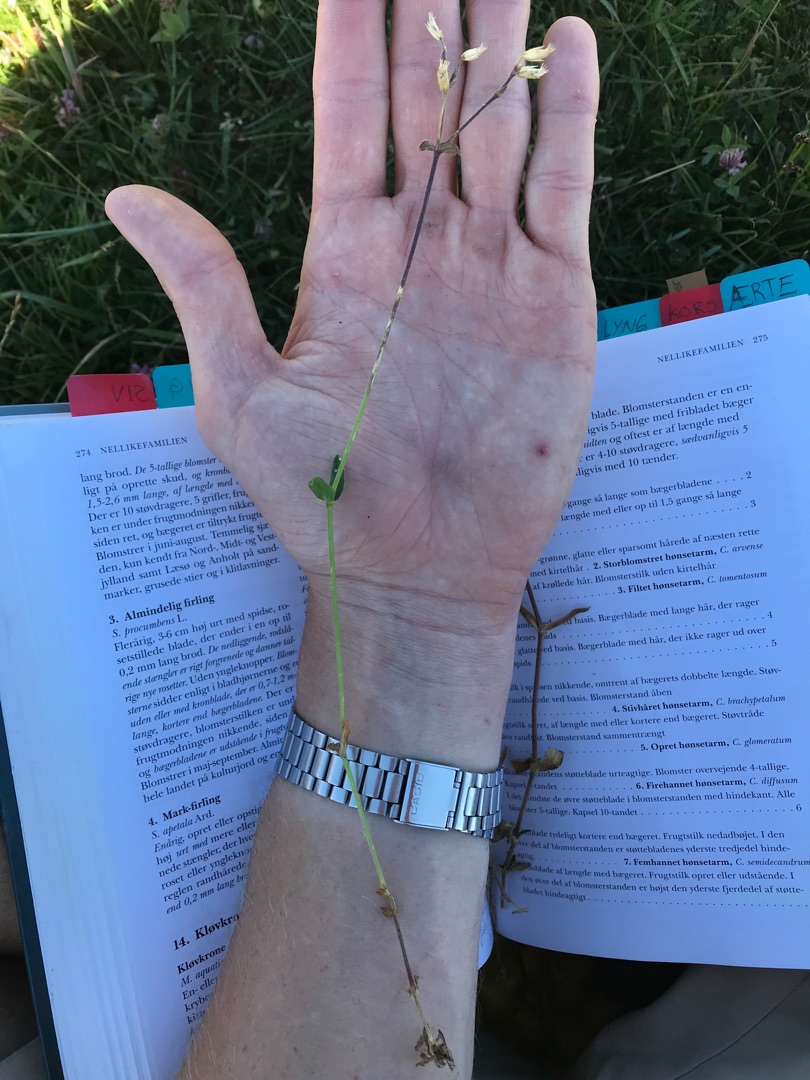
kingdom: Plantae
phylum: Tracheophyta
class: Magnoliopsida
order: Caryophyllales
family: Caryophyllaceae
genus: Cerastium
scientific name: Cerastium fontanum
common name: Almindelig hønsetarm
